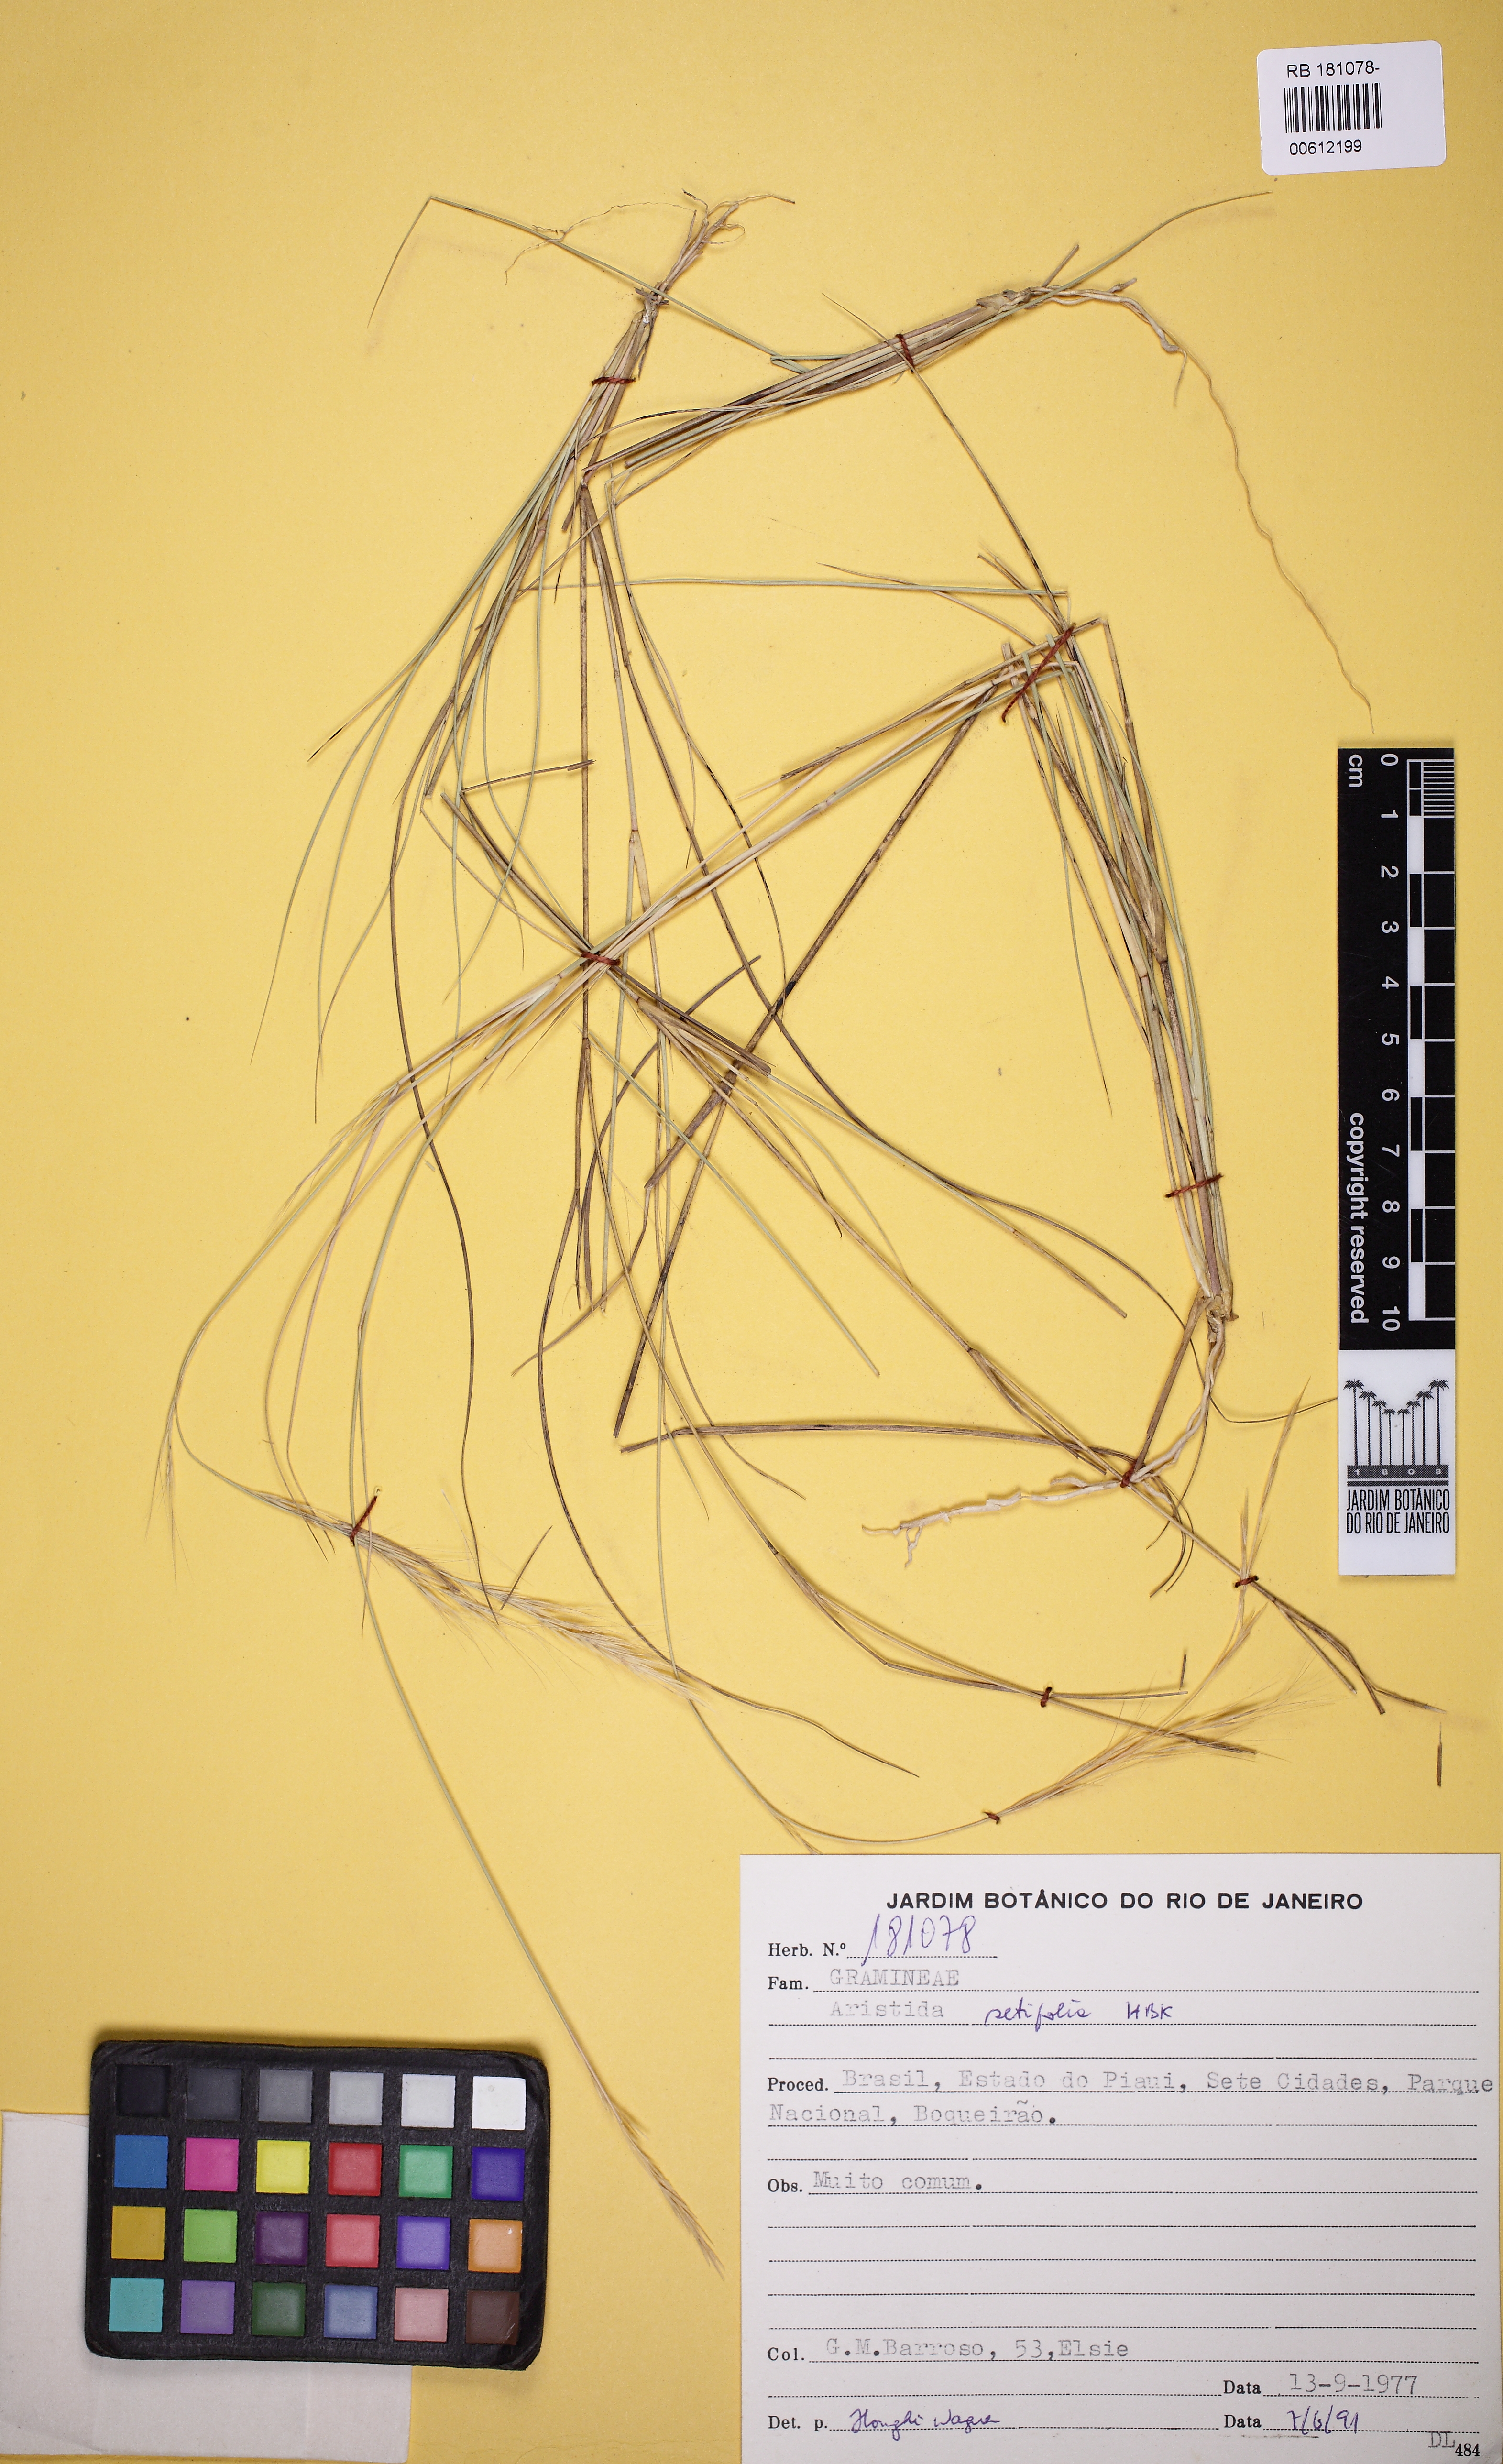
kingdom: Plantae
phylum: Tracheophyta
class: Liliopsida
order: Poales
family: Poaceae
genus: Aristida
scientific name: Aristida setifolia
